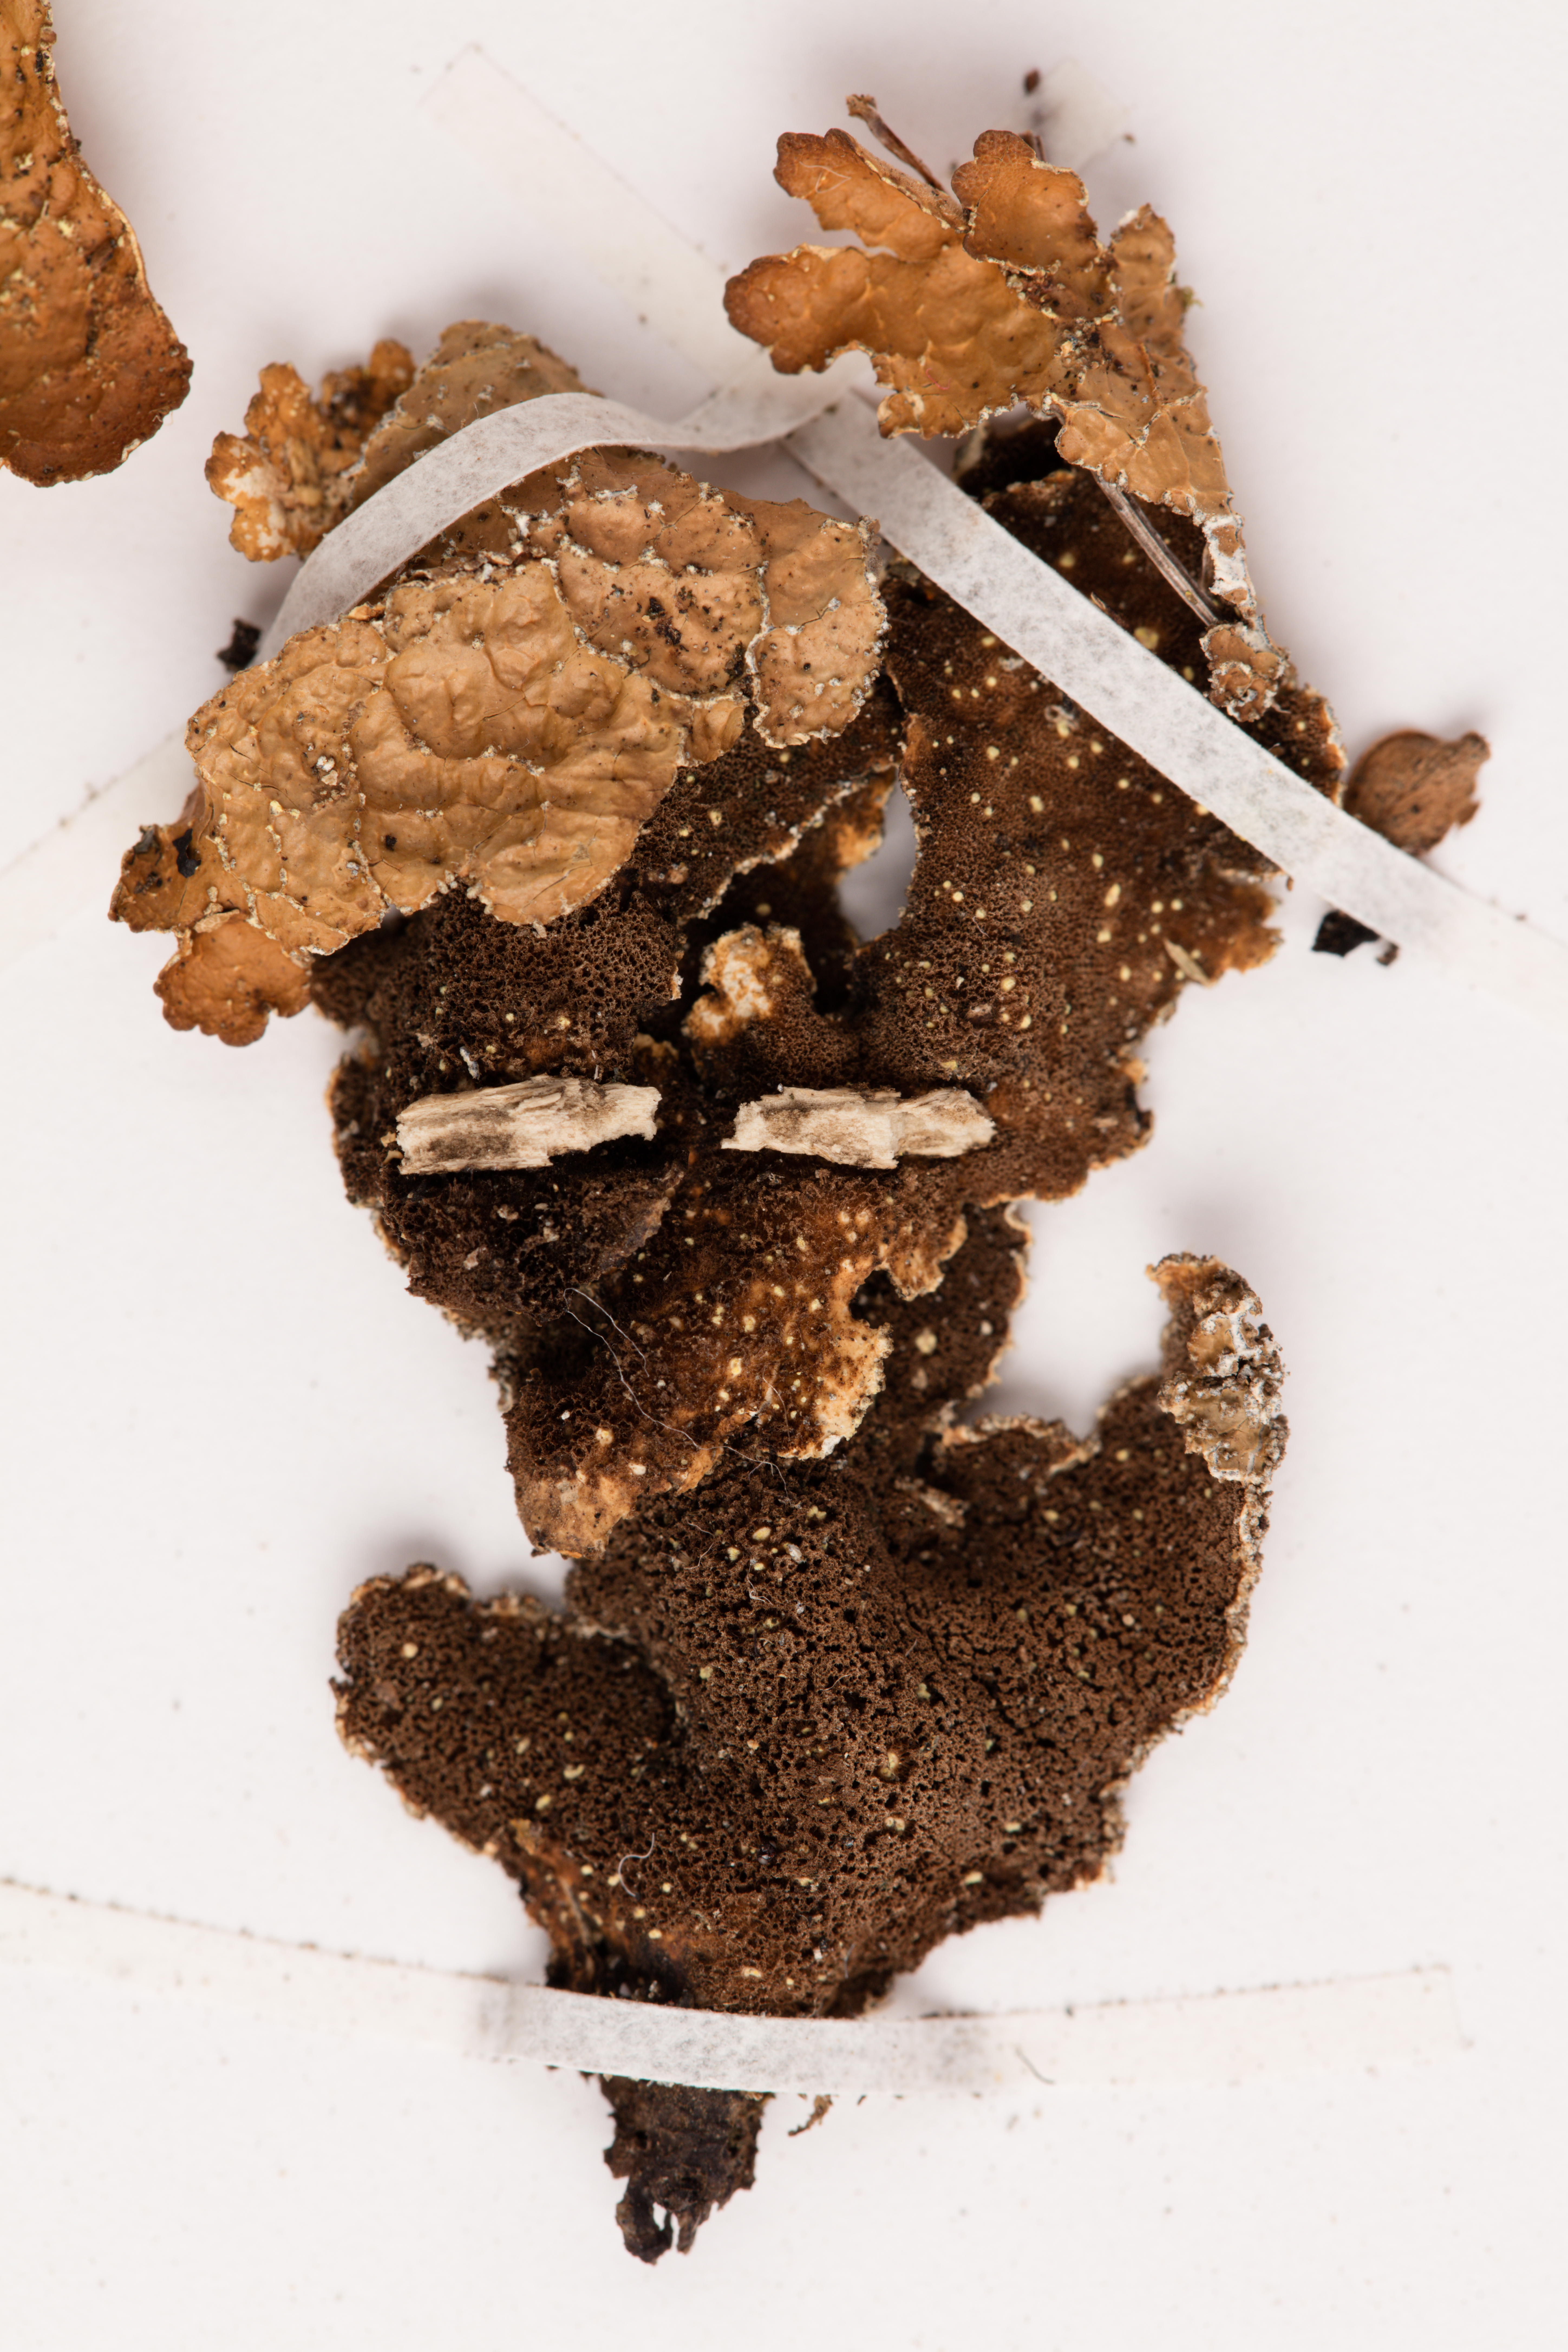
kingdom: Fungi
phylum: Ascomycota
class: Lecanoromycetes
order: Peltigerales
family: Lobariaceae
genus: Pseudocyphellaria
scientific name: Pseudocyphellaria bartlettii
